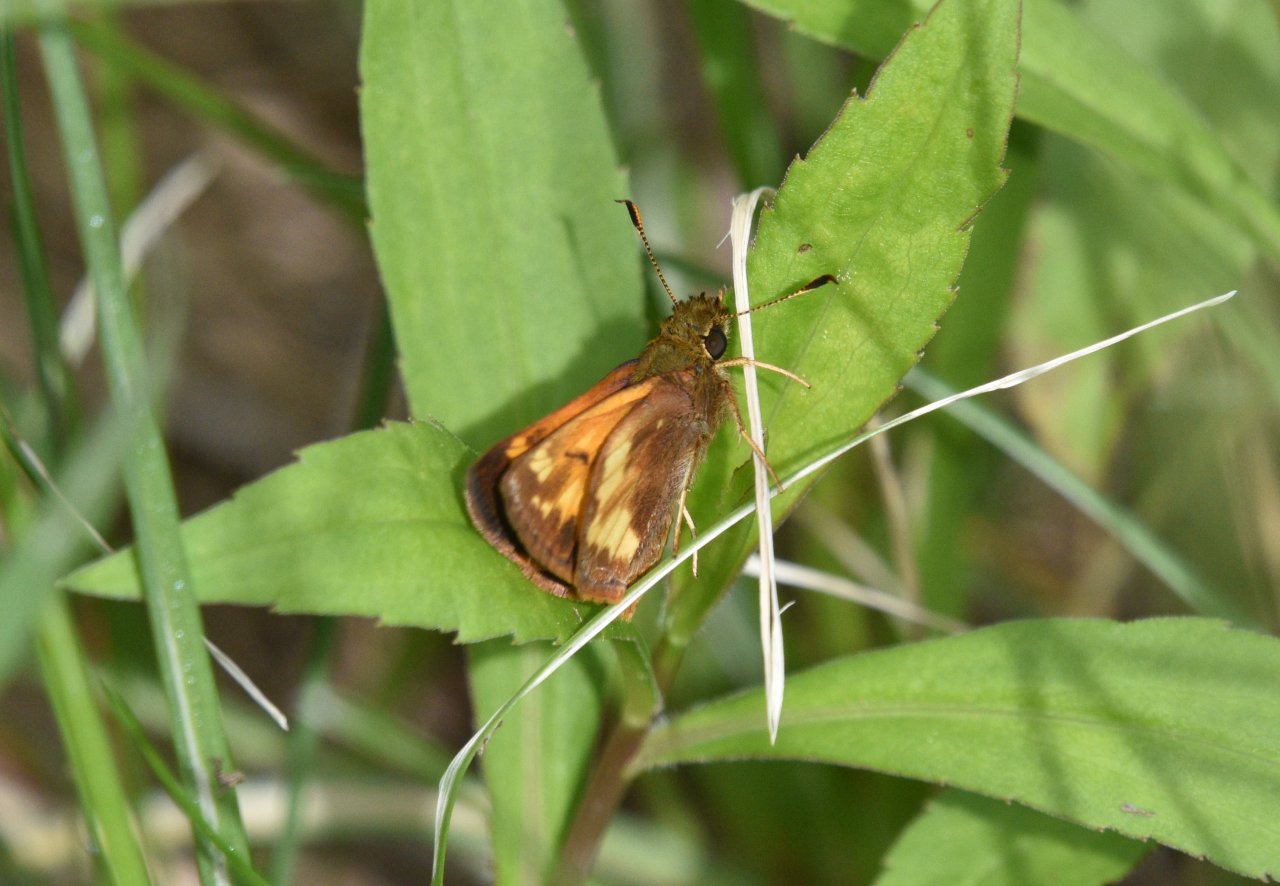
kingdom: Animalia
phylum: Arthropoda
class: Insecta
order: Lepidoptera
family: Hesperiidae
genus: Lon
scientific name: Lon hobomok
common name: Hobomok Skipper
